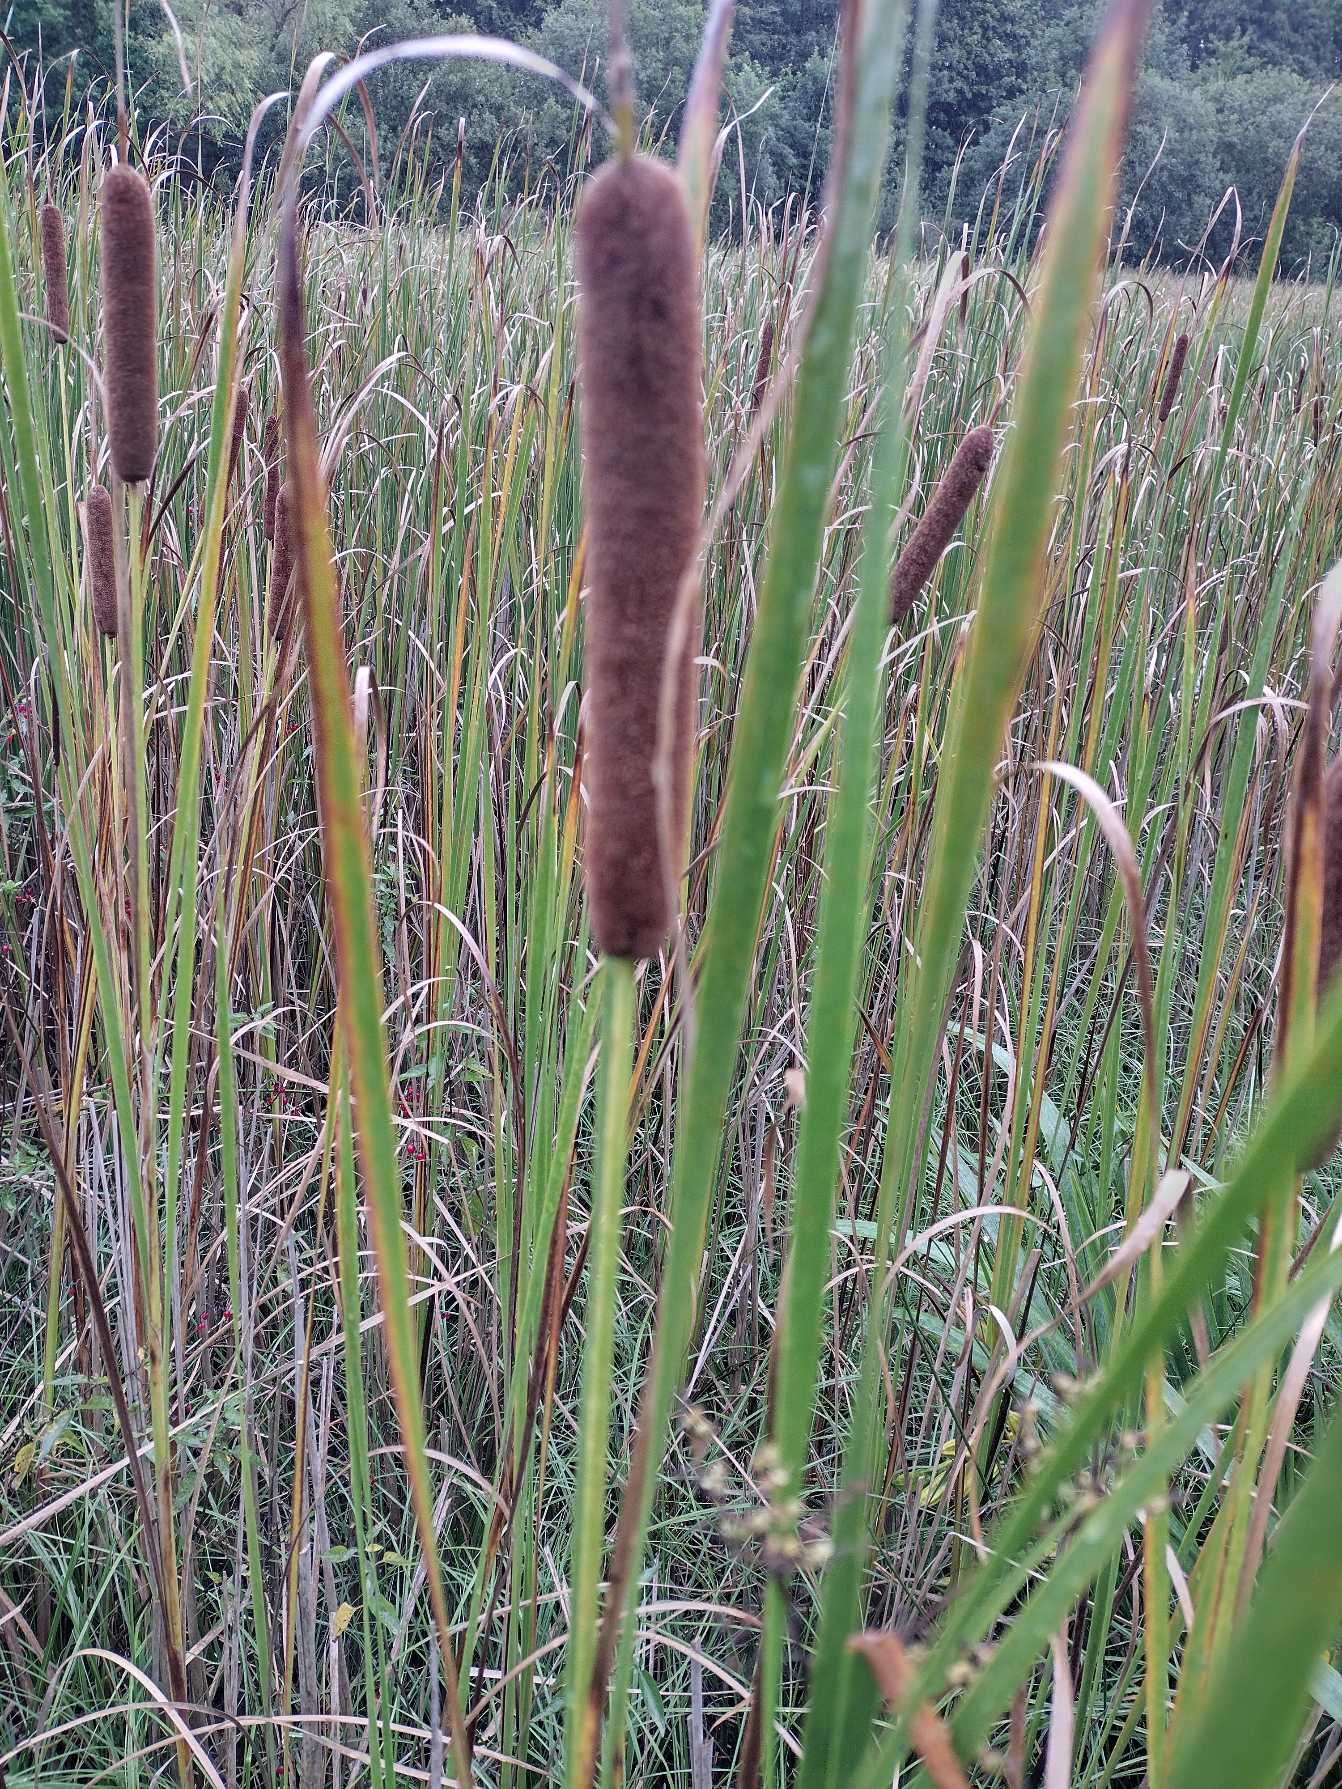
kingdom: Plantae
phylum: Tracheophyta
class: Liliopsida
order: Poales
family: Typhaceae
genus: Typha
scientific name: Typha angustifolia
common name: Smalbladet dunhammer
